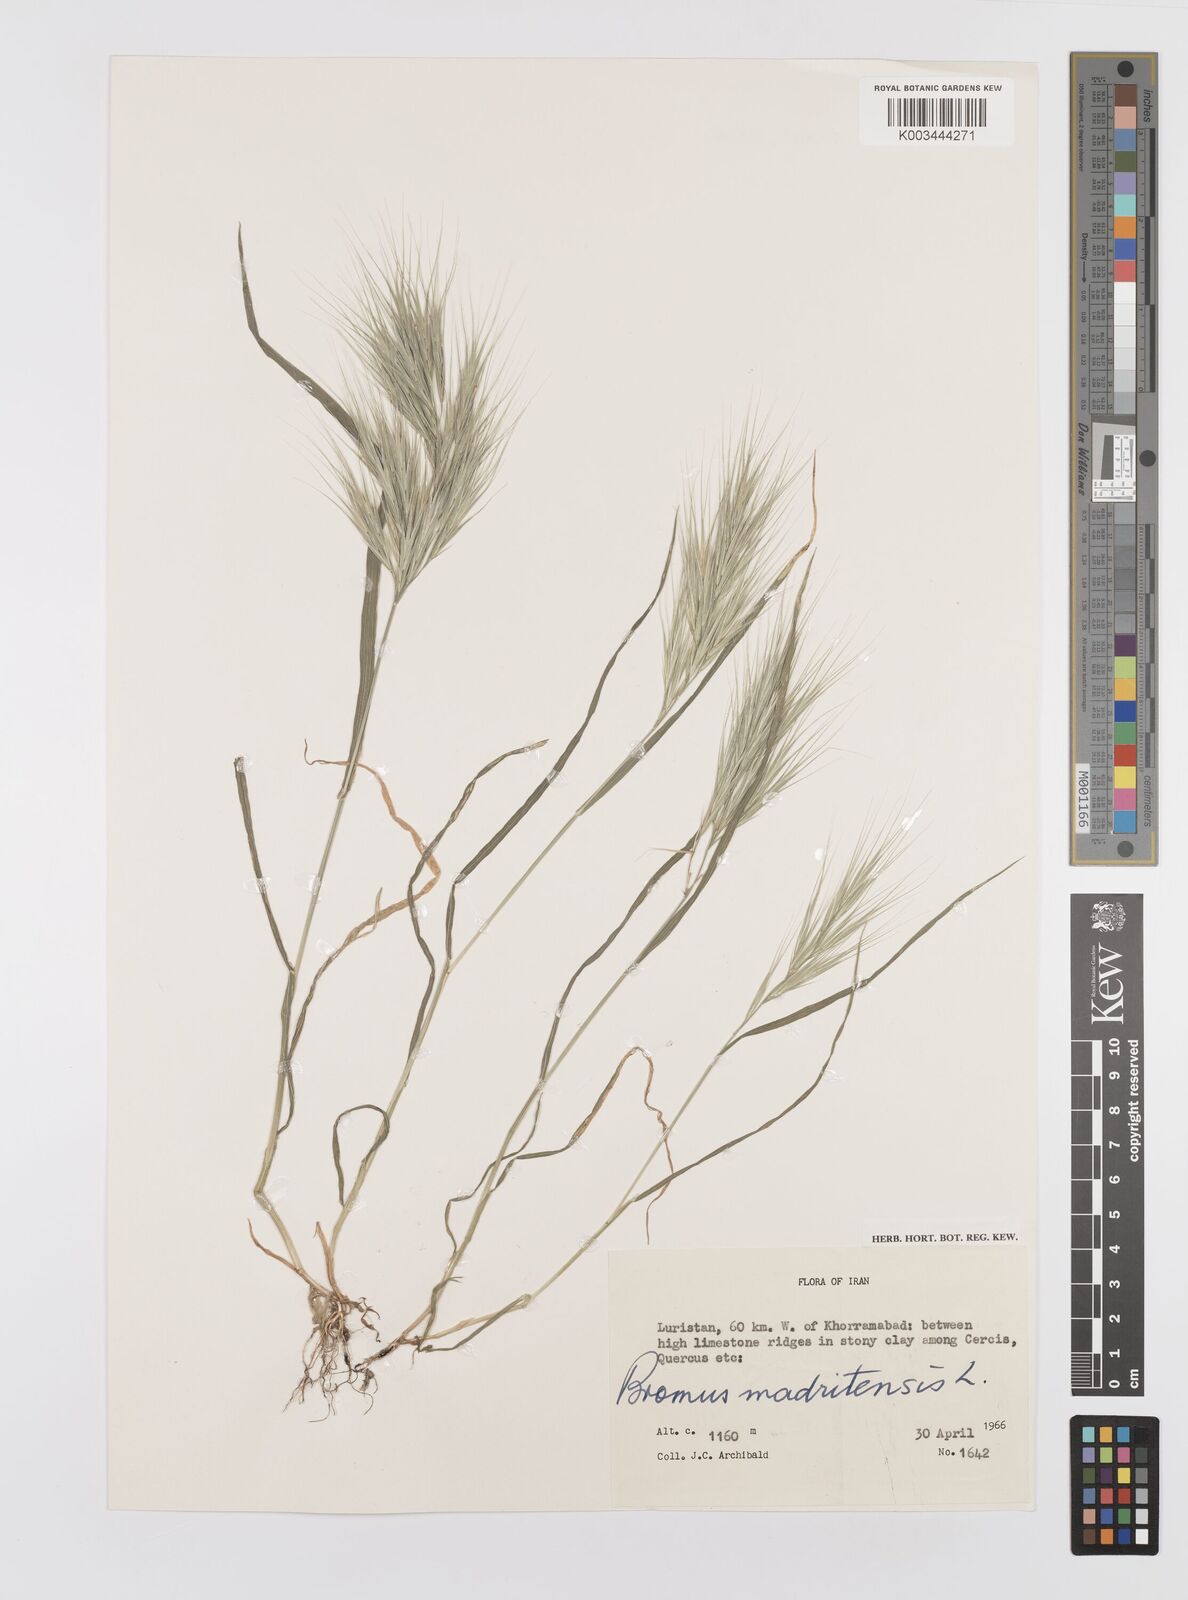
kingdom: Plantae
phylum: Tracheophyta
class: Liliopsida
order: Poales
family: Poaceae
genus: Bromus
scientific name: Bromus madritensis
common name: Compact brome
